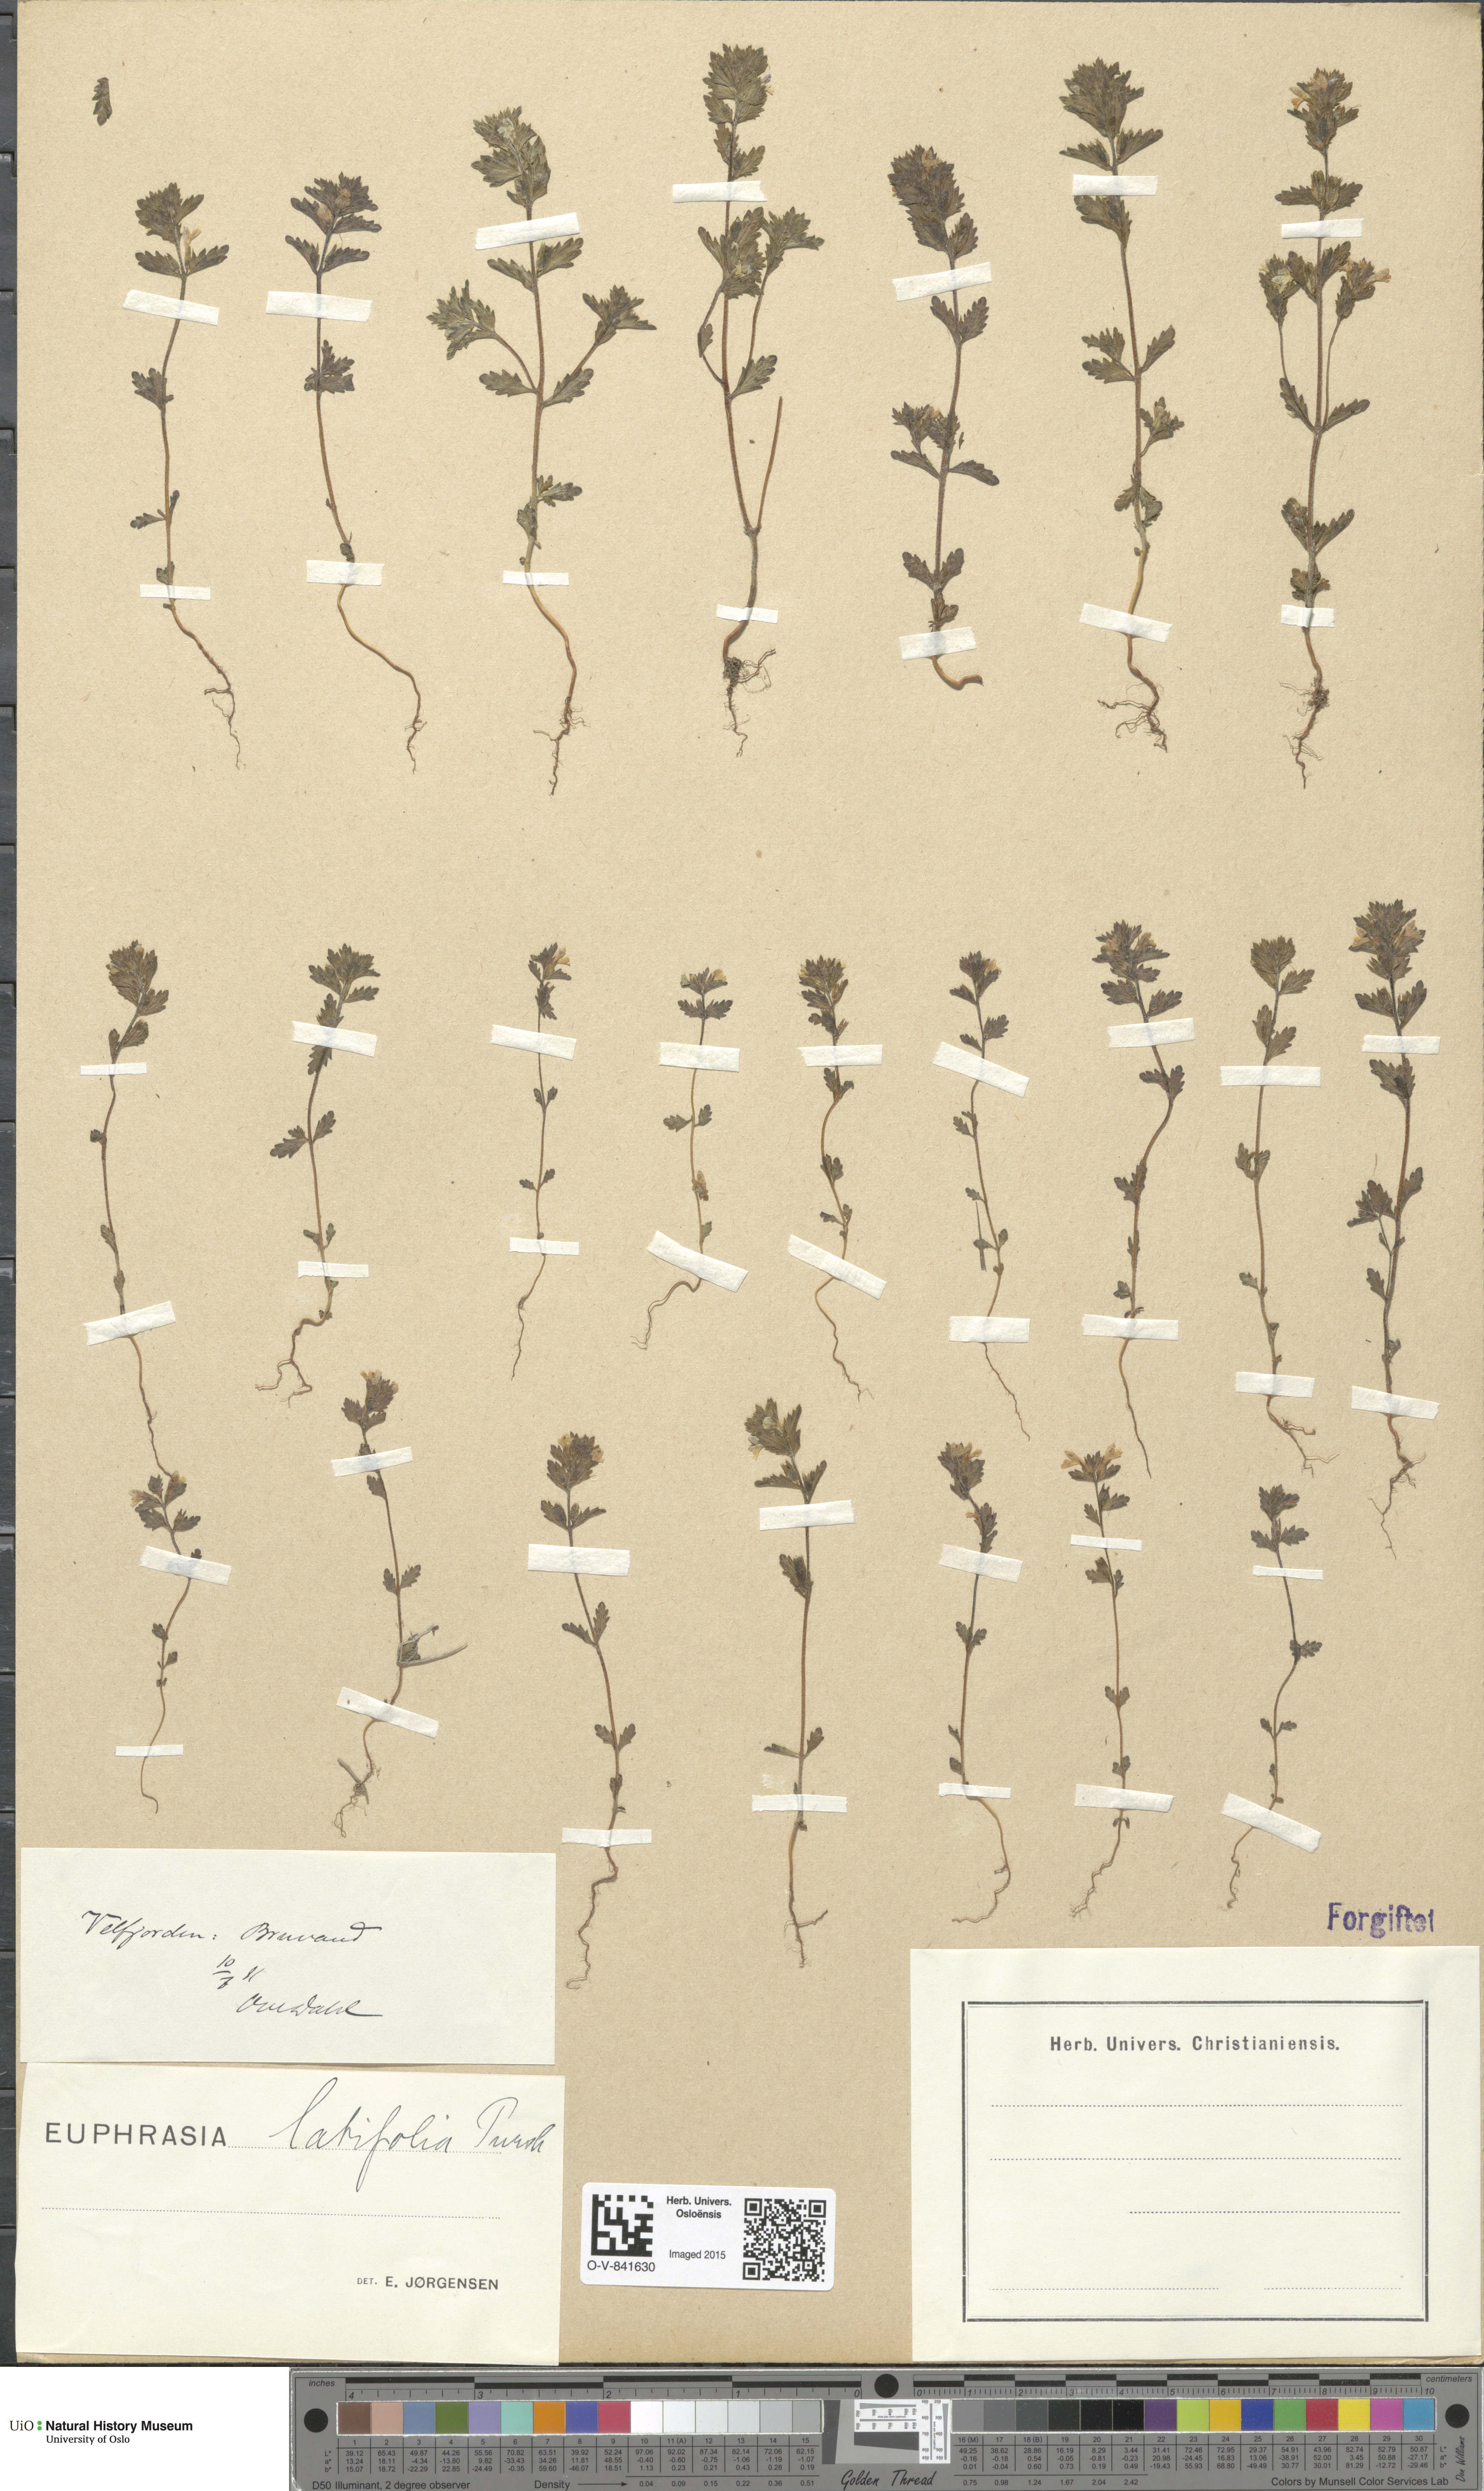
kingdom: Plantae
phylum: Tracheophyta
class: Magnoliopsida
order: Lamiales
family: Orobanchaceae
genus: Euphrasia
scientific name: Euphrasia wettsteinii
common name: Wettstein's eyebright
